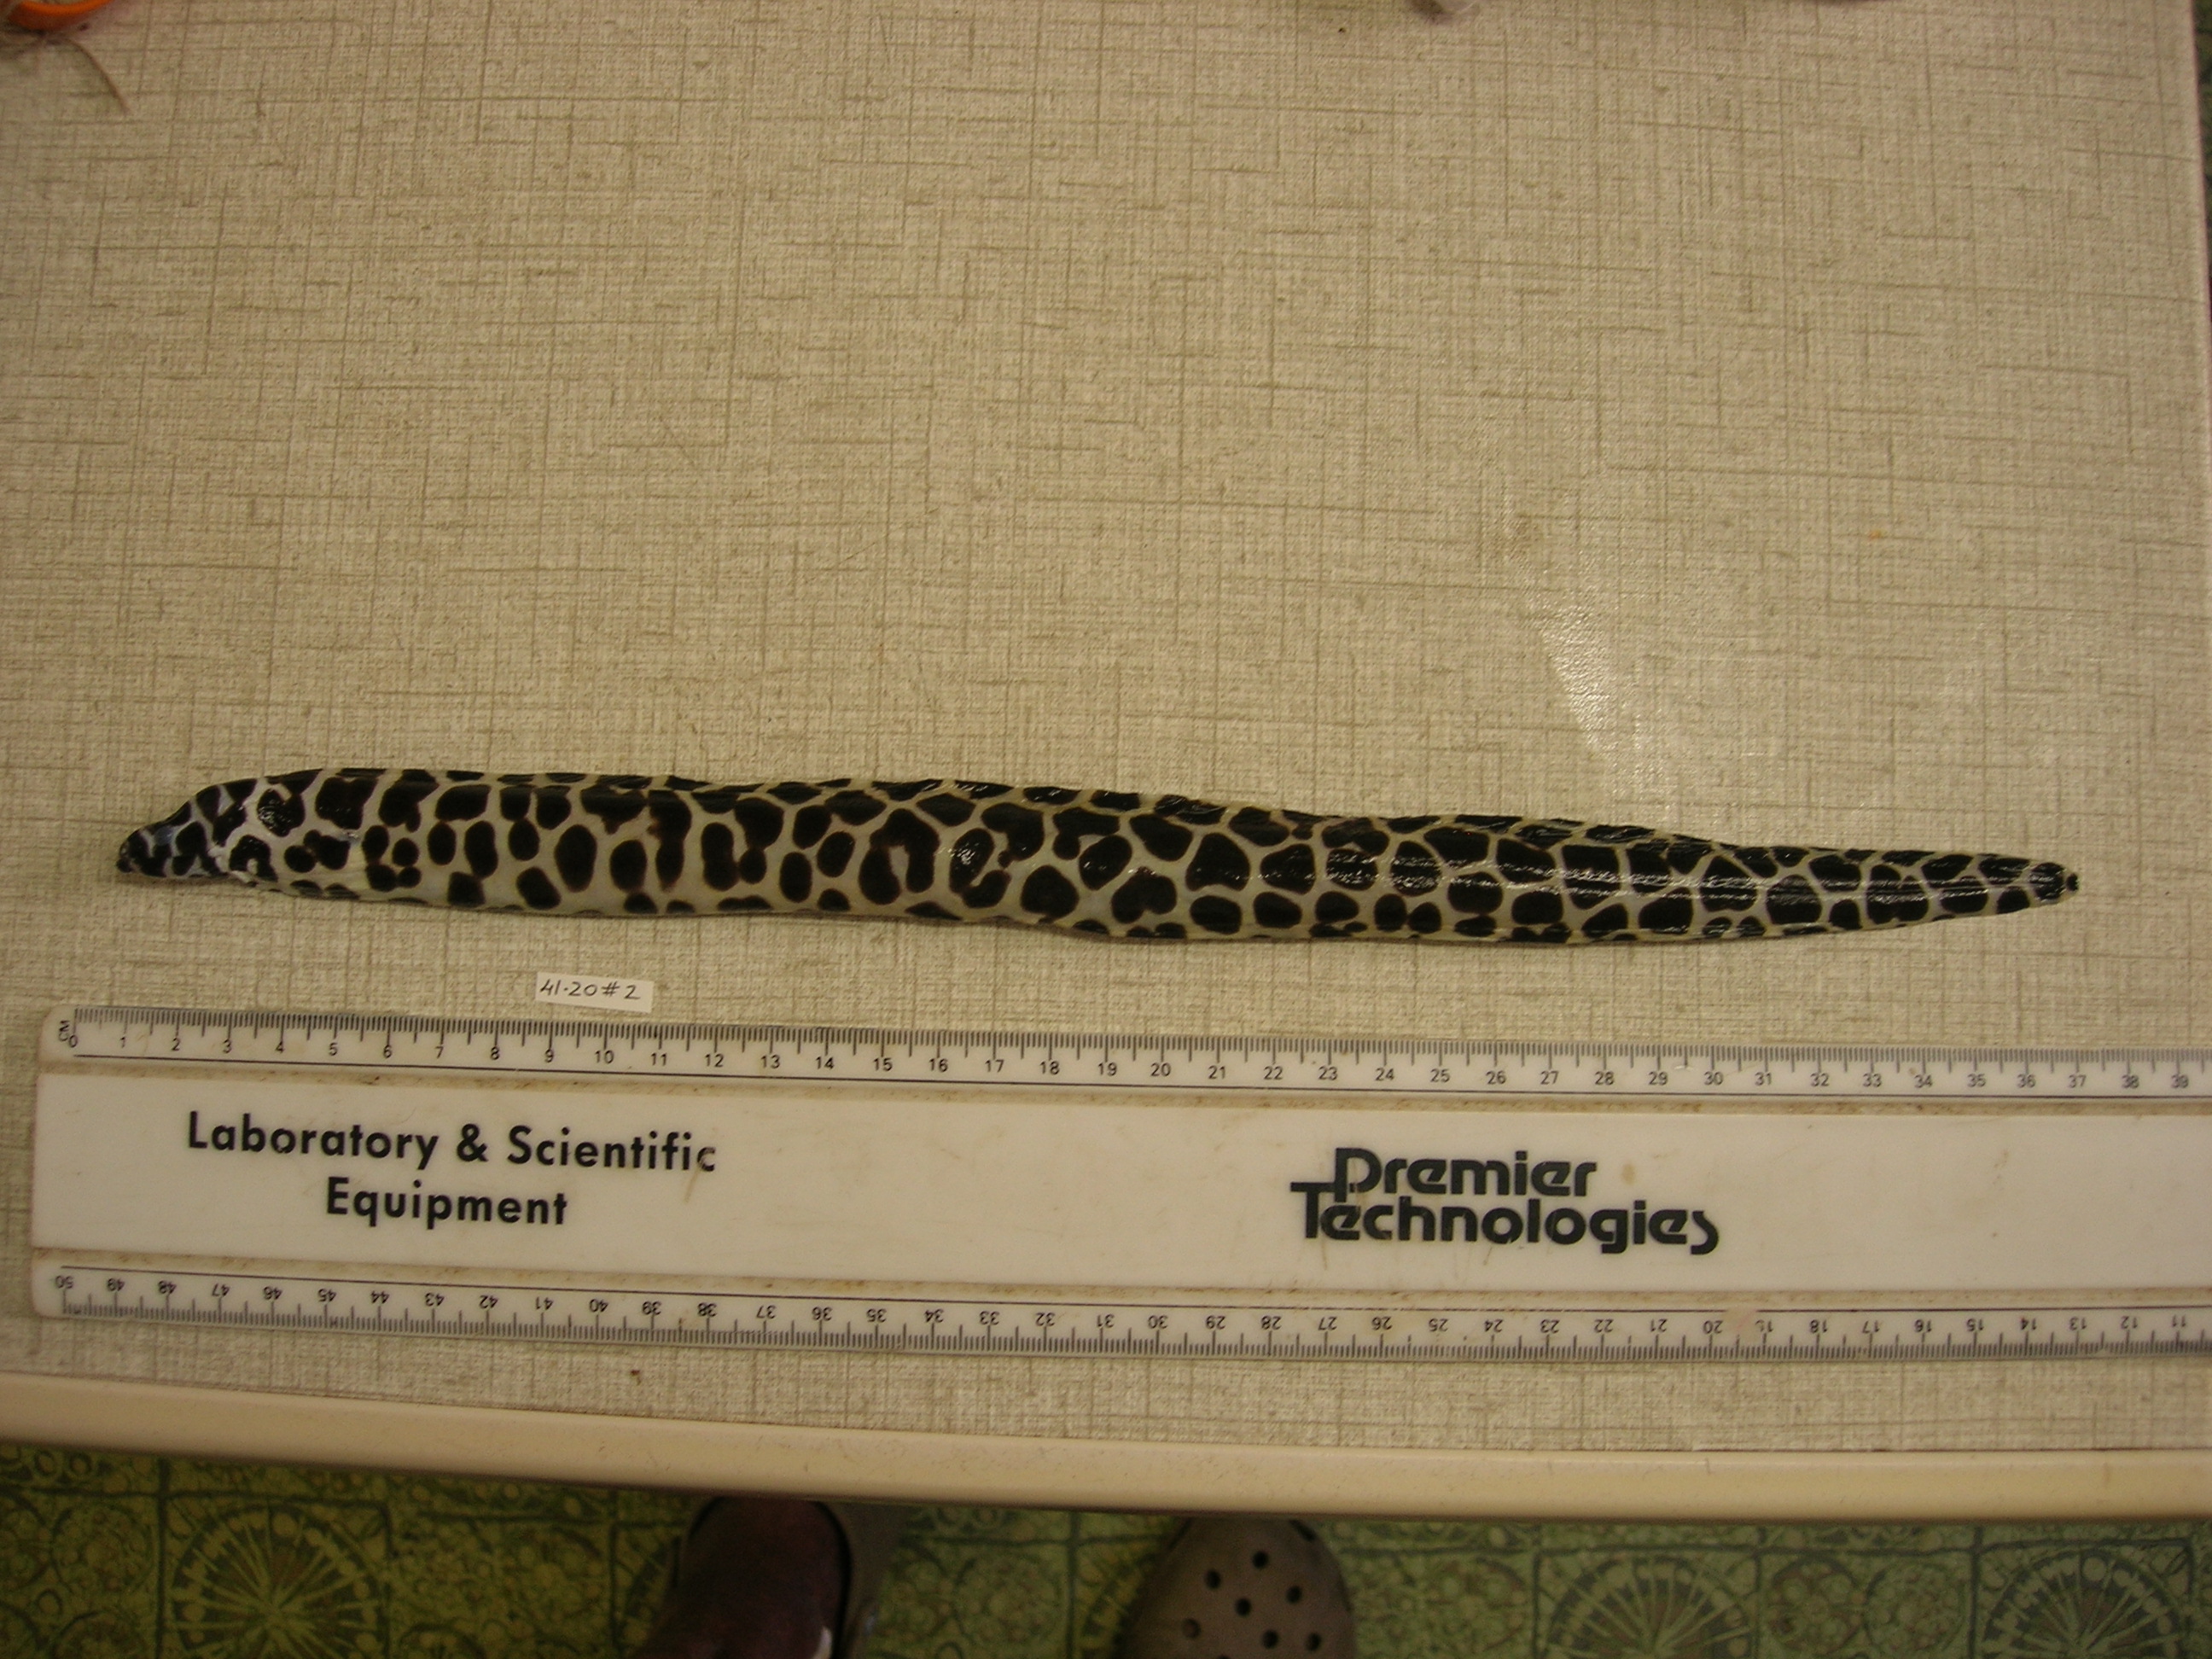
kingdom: Animalia
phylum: Chordata
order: Anguilliformes
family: Muraenidae
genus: Gymnothorax
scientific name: Gymnothorax favagineus
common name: Honeycomb moray
